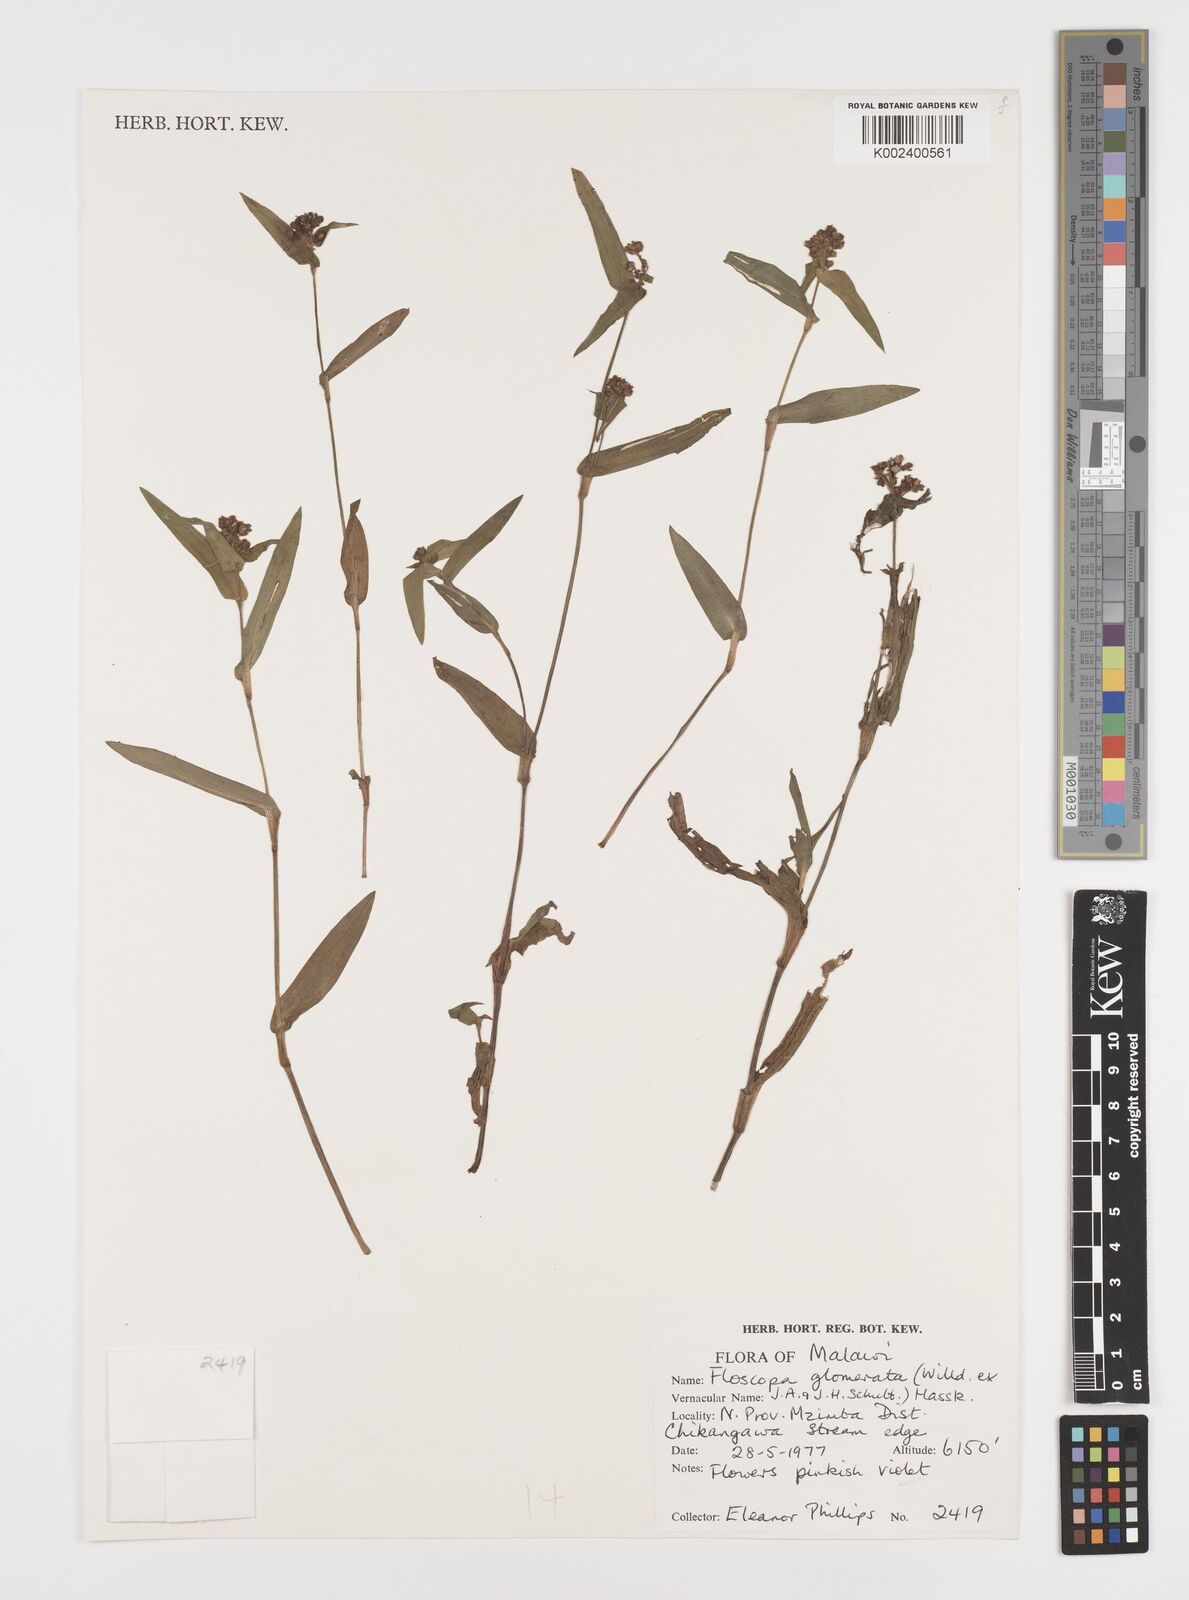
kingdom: Plantae
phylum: Tracheophyta
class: Liliopsida
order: Commelinales
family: Commelinaceae
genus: Floscopa
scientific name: Floscopa glomerata
